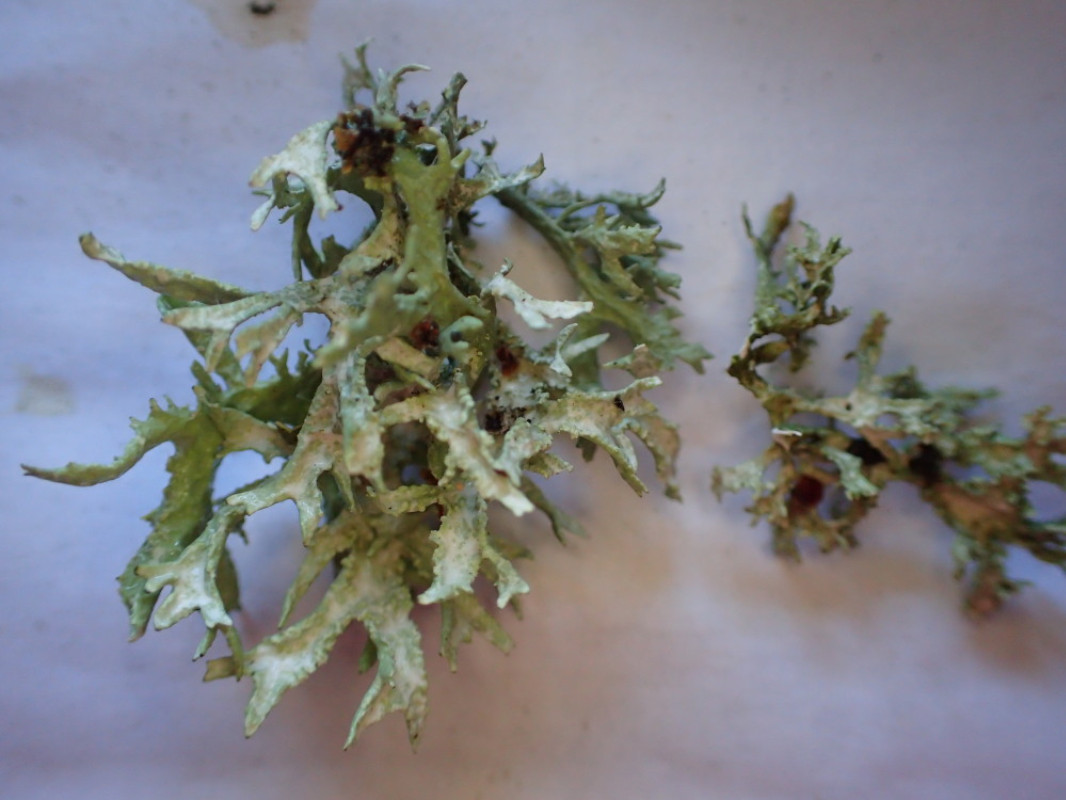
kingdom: Fungi
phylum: Ascomycota
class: Lecanoromycetes
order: Lecanorales
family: Parmeliaceae
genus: Evernia
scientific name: Evernia prunastri
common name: almindelig slåenlav
